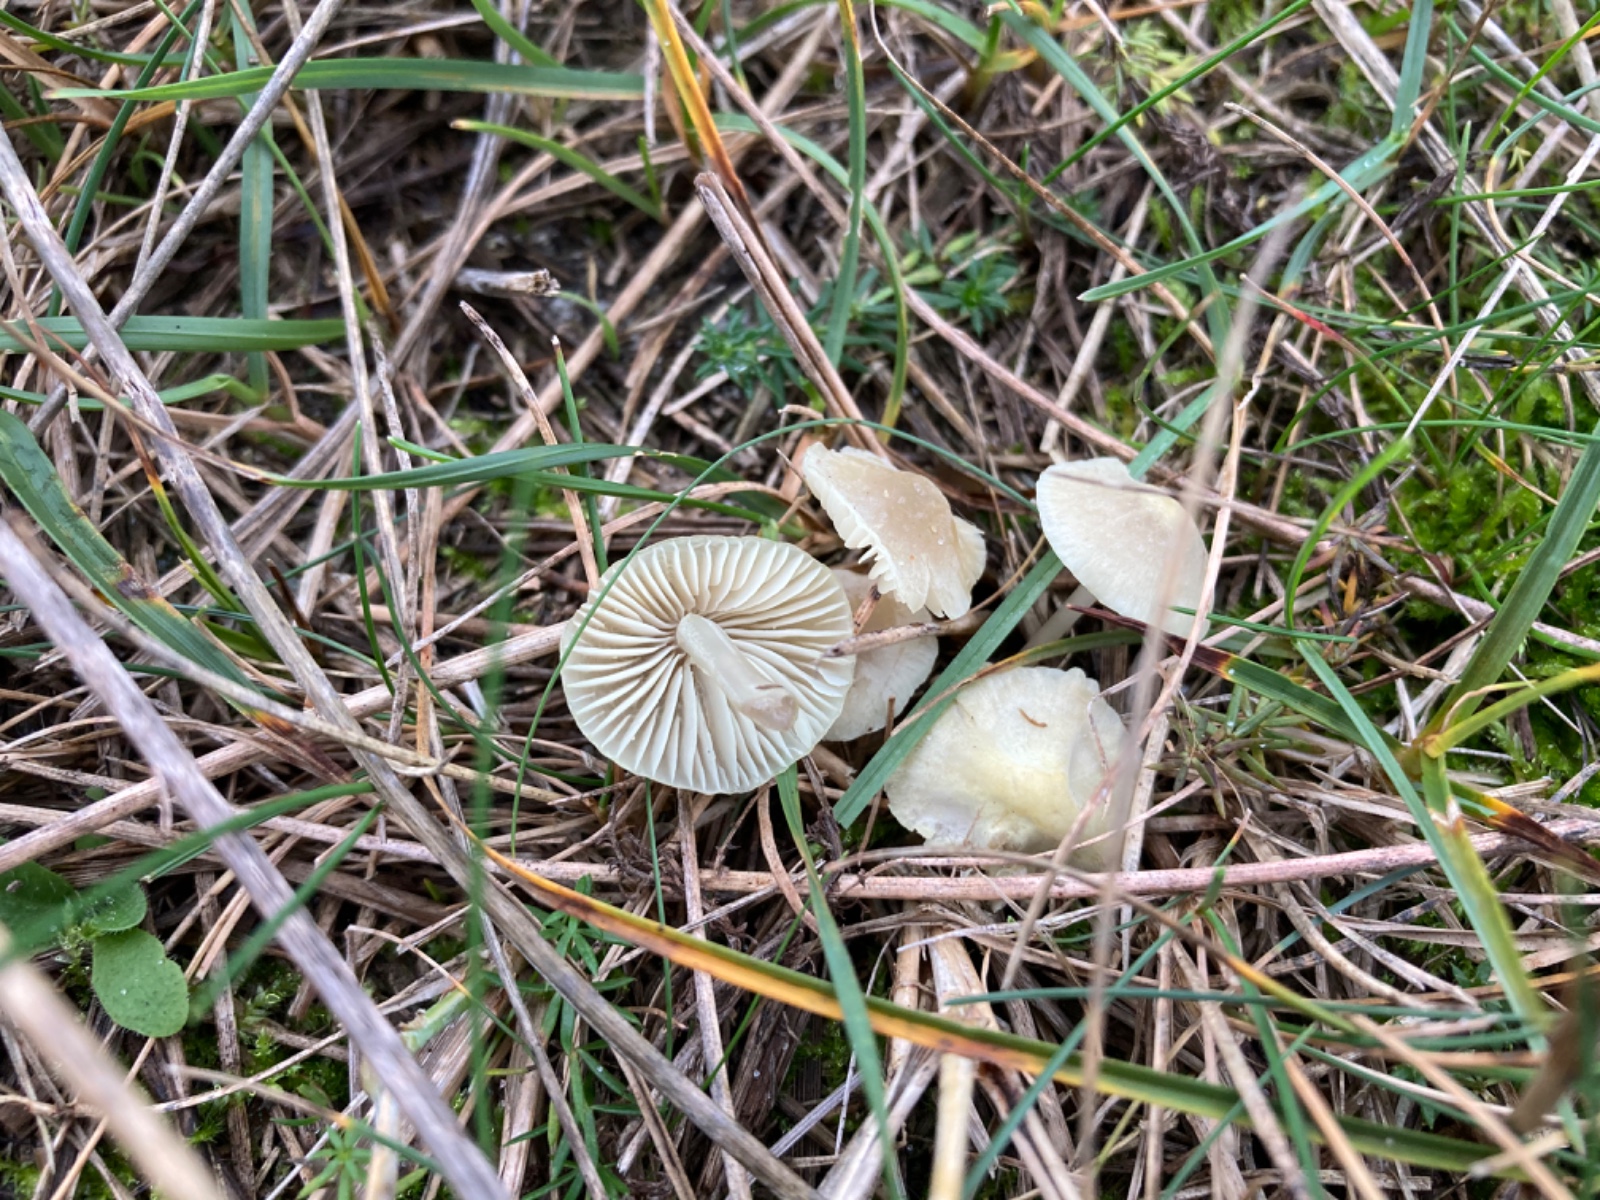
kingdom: Fungi
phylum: Basidiomycota
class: Agaricomycetes
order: Agaricales
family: Mycenaceae
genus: Mycena
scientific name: Mycena chlorantha
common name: klit-huesvamp
